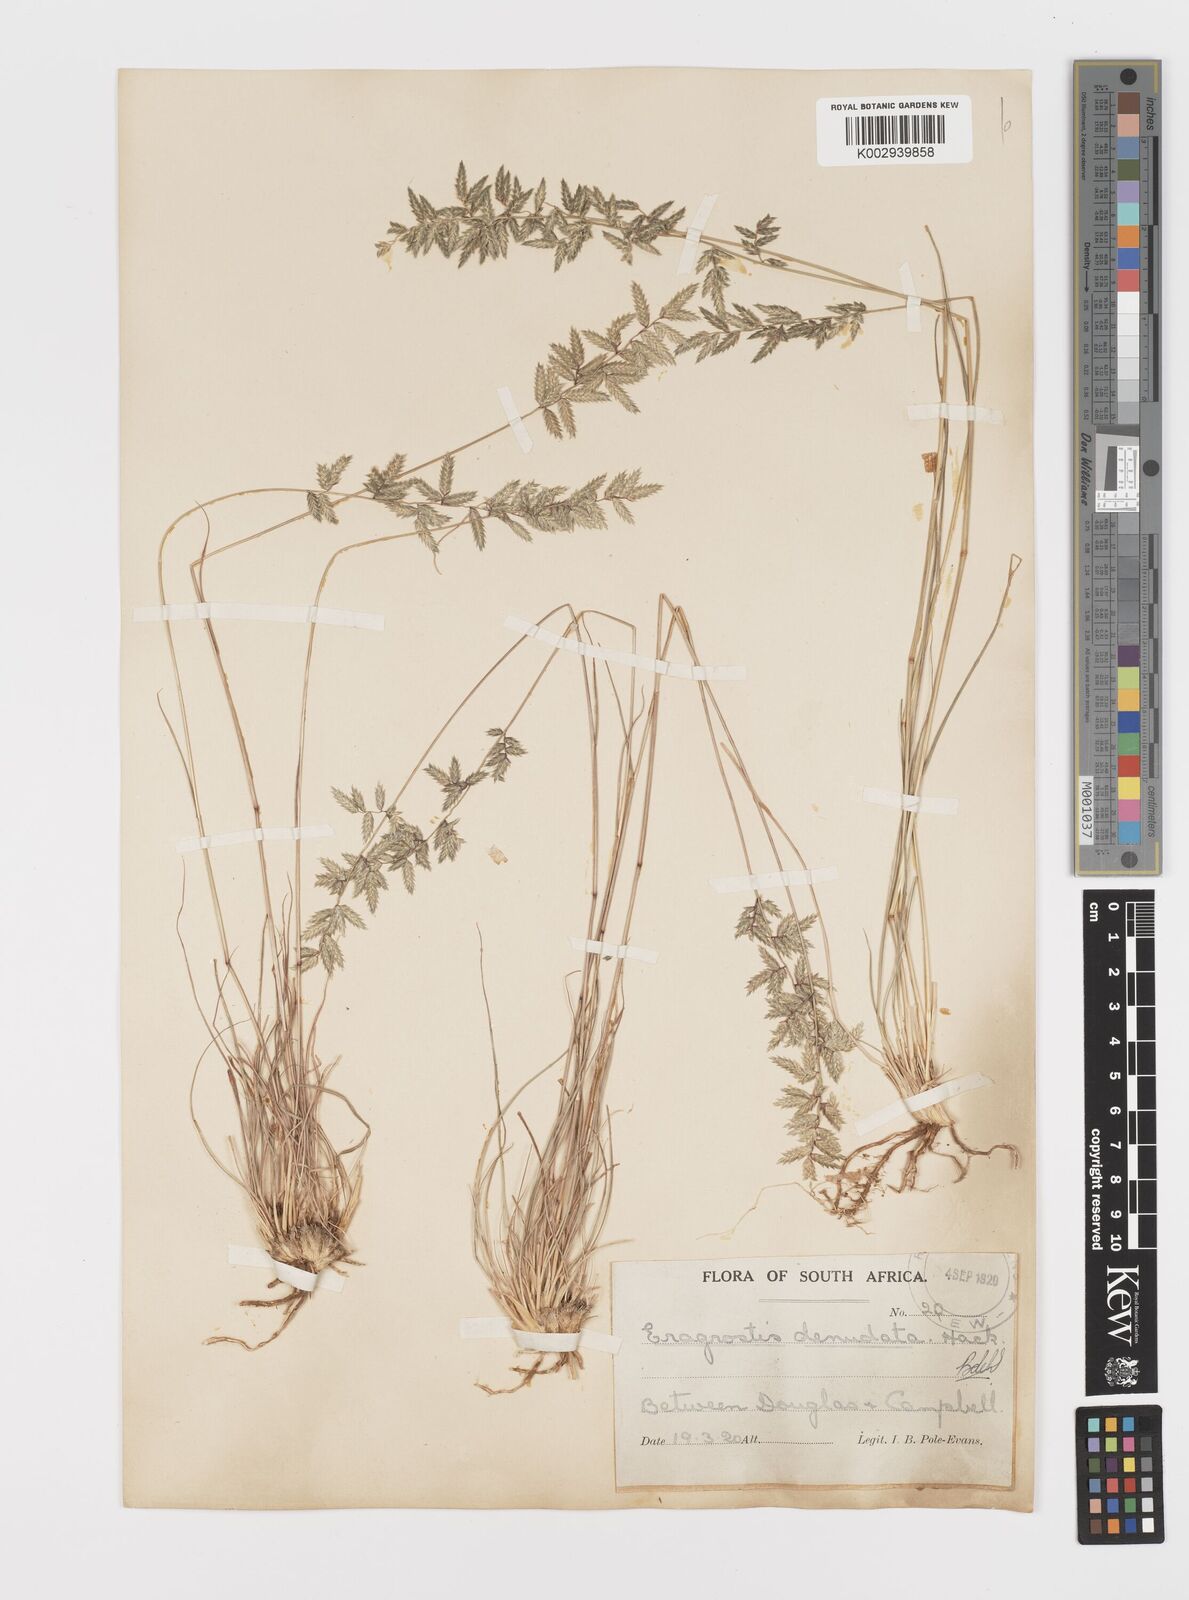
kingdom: Plantae
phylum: Tracheophyta
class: Liliopsida
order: Poales
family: Poaceae
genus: Eragrostis
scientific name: Eragrostis nindensis
